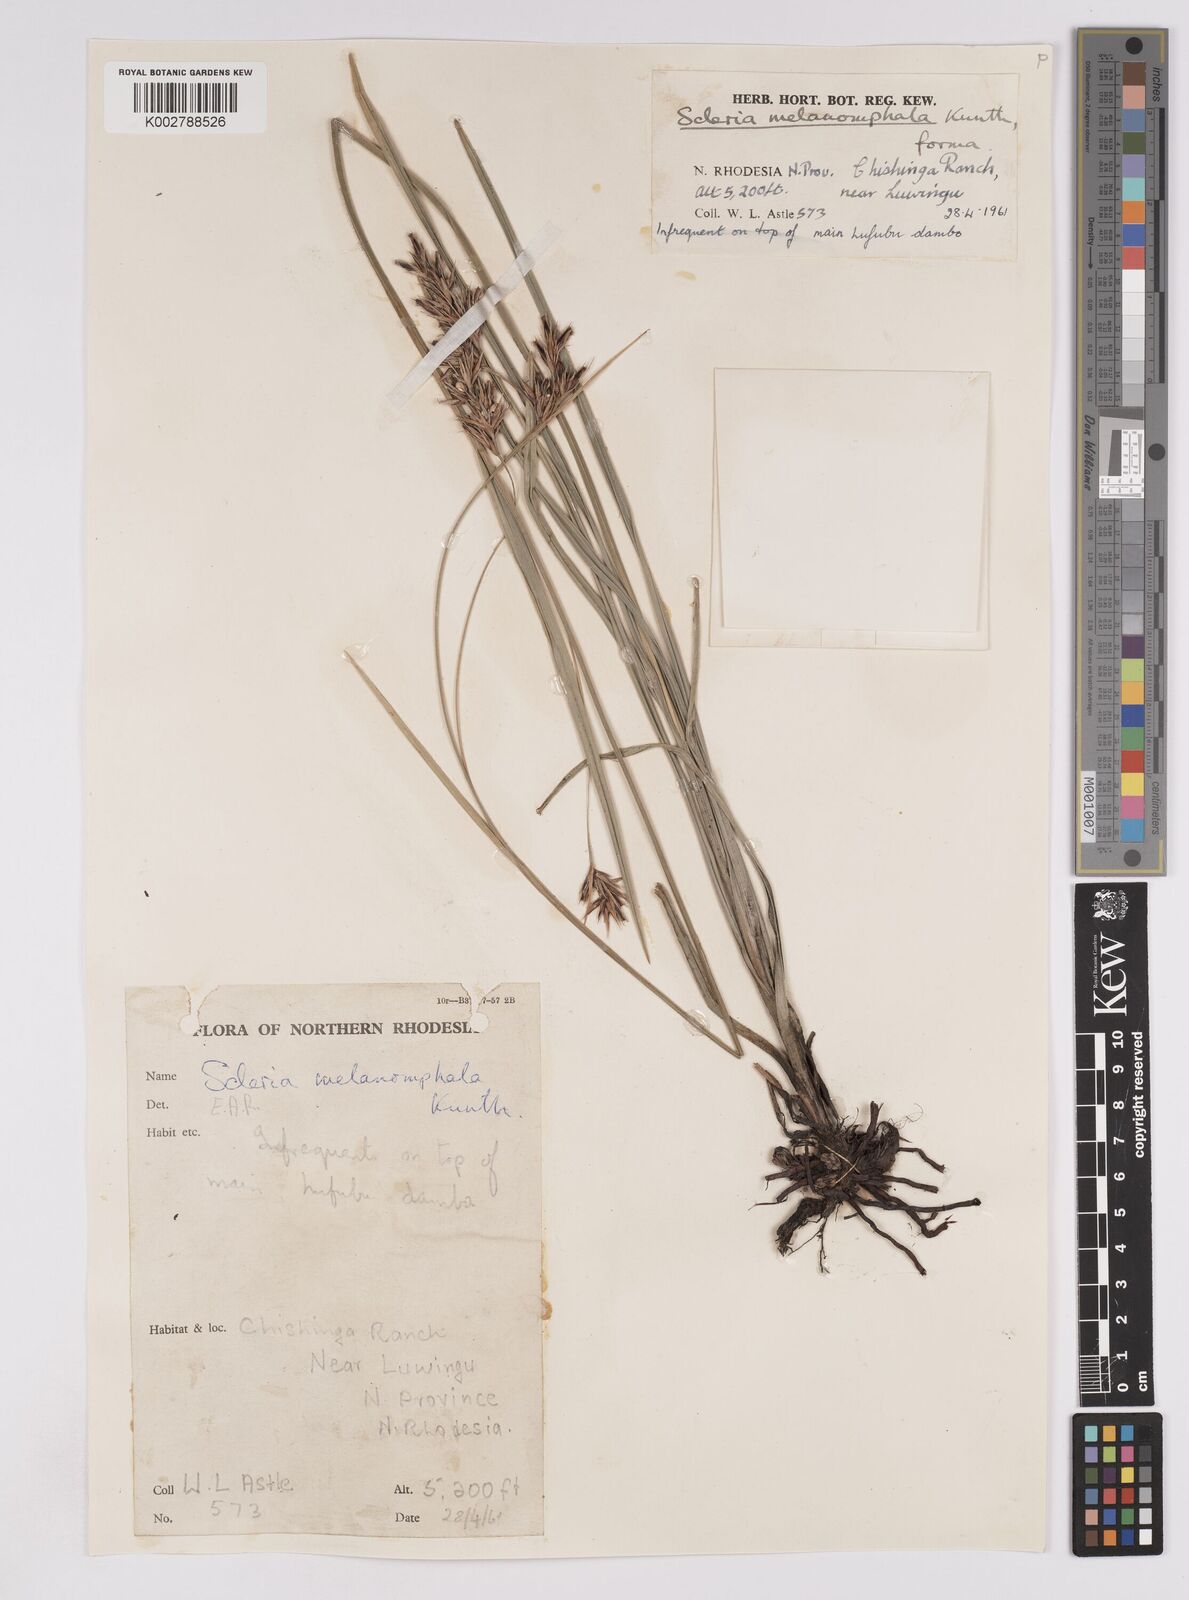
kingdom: Plantae
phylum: Tracheophyta
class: Liliopsida
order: Poales
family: Cyperaceae
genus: Scleria
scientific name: Scleria melanomphala
